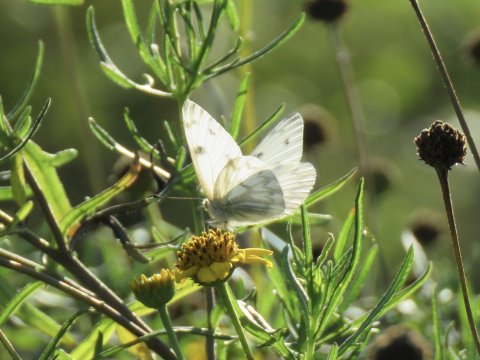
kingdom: Animalia
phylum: Arthropoda
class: Insecta
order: Lepidoptera
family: Pieridae
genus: Pontia
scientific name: Pontia protodice
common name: Checkered White
